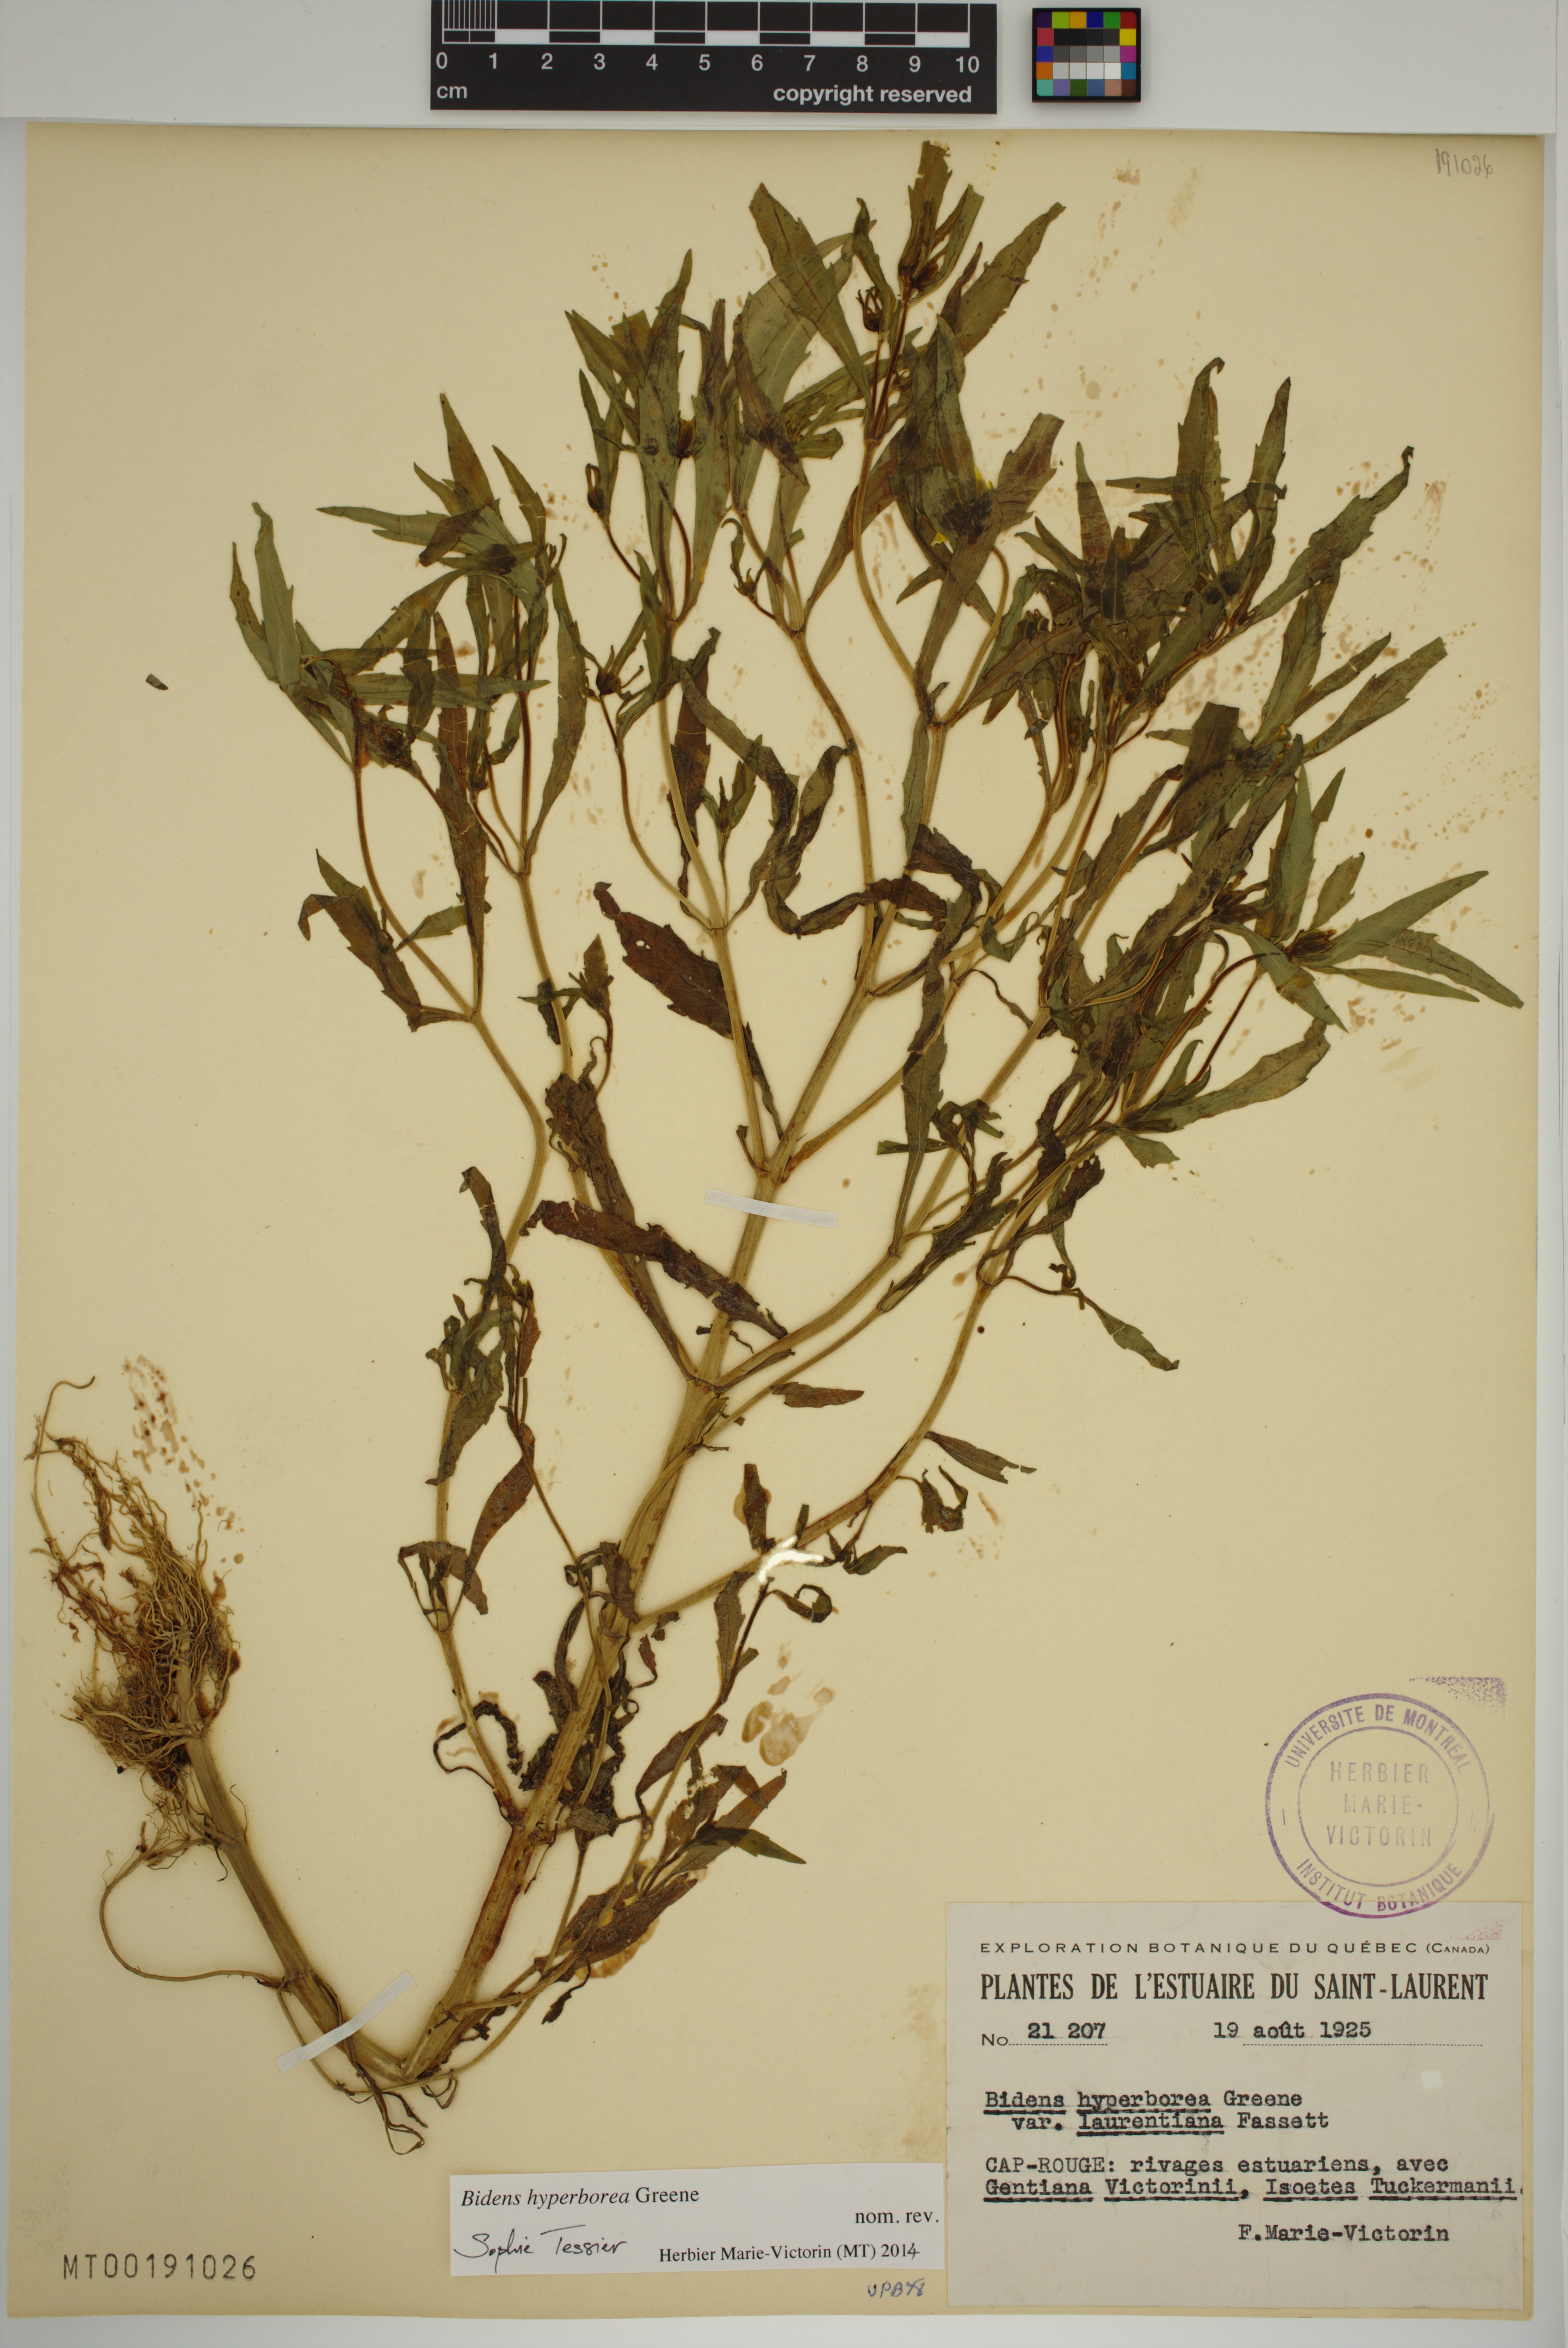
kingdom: Plantae
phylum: Tracheophyta
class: Magnoliopsida
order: Asterales
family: Asteraceae
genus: Bidens
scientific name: Bidens hyperborea
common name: Coastal beggarticks
